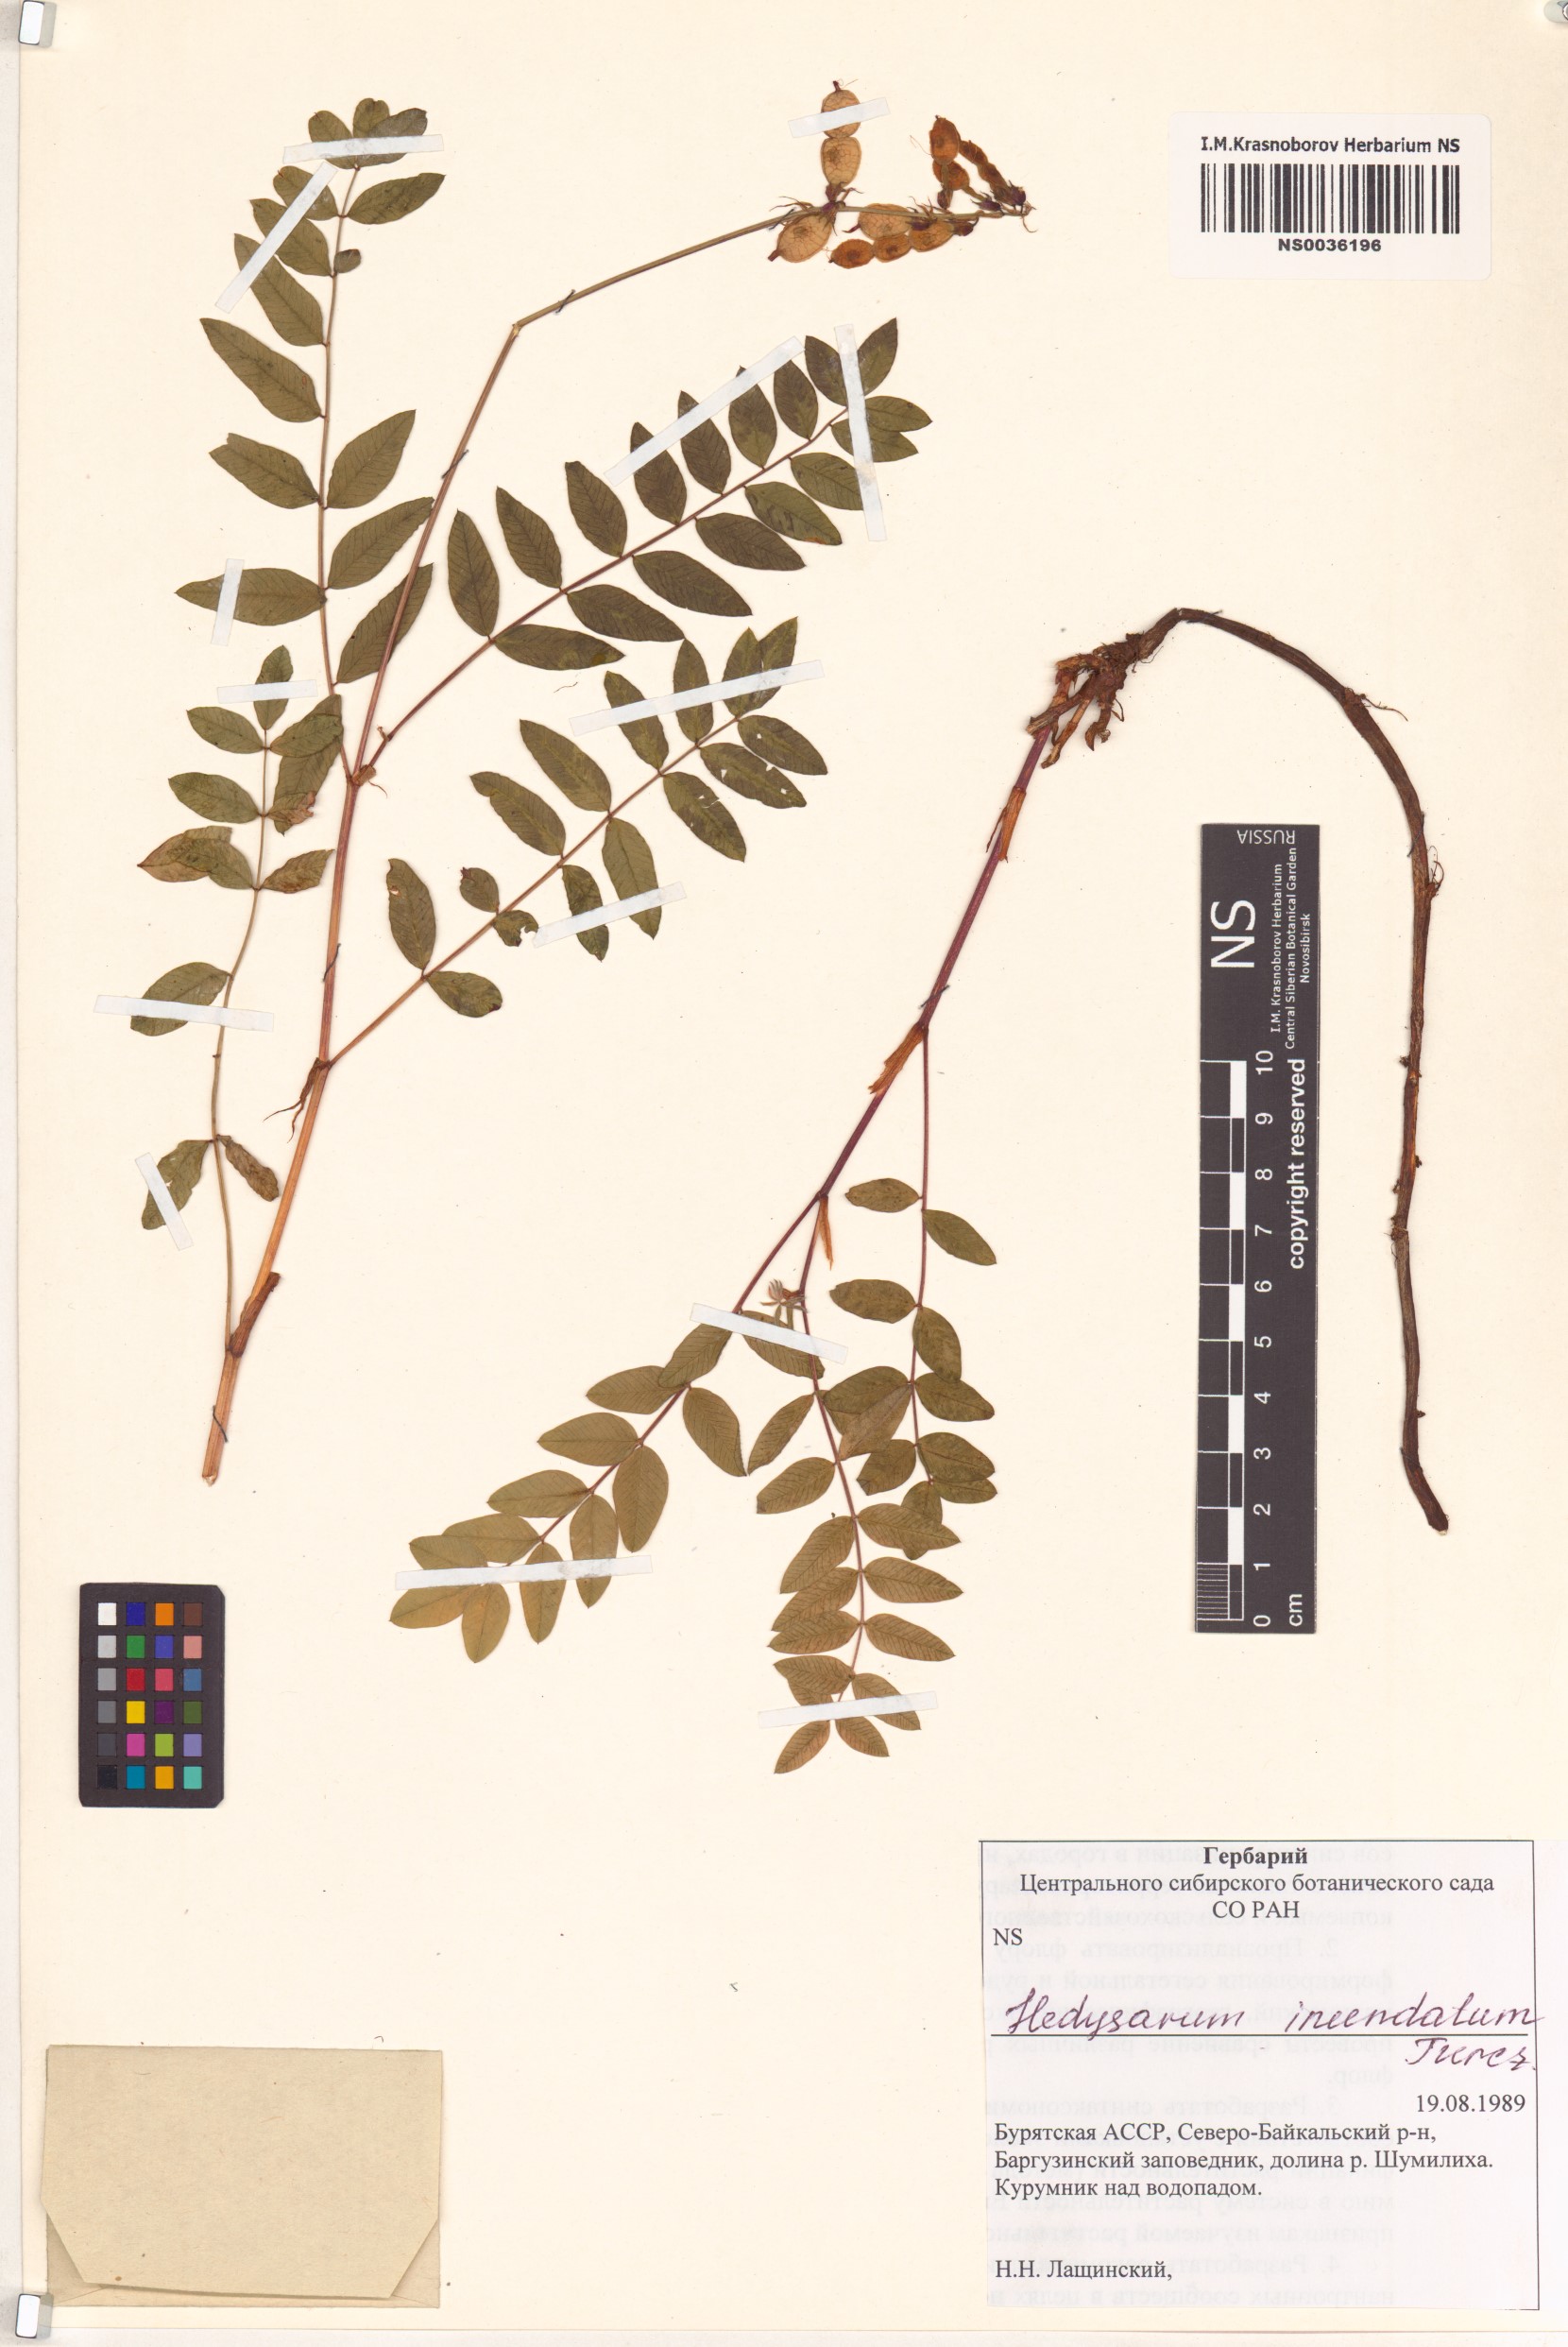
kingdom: Plantae
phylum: Tracheophyta
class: Magnoliopsida
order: Fabales
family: Fabaceae
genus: Hedysarum
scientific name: Hedysarum inundatum
